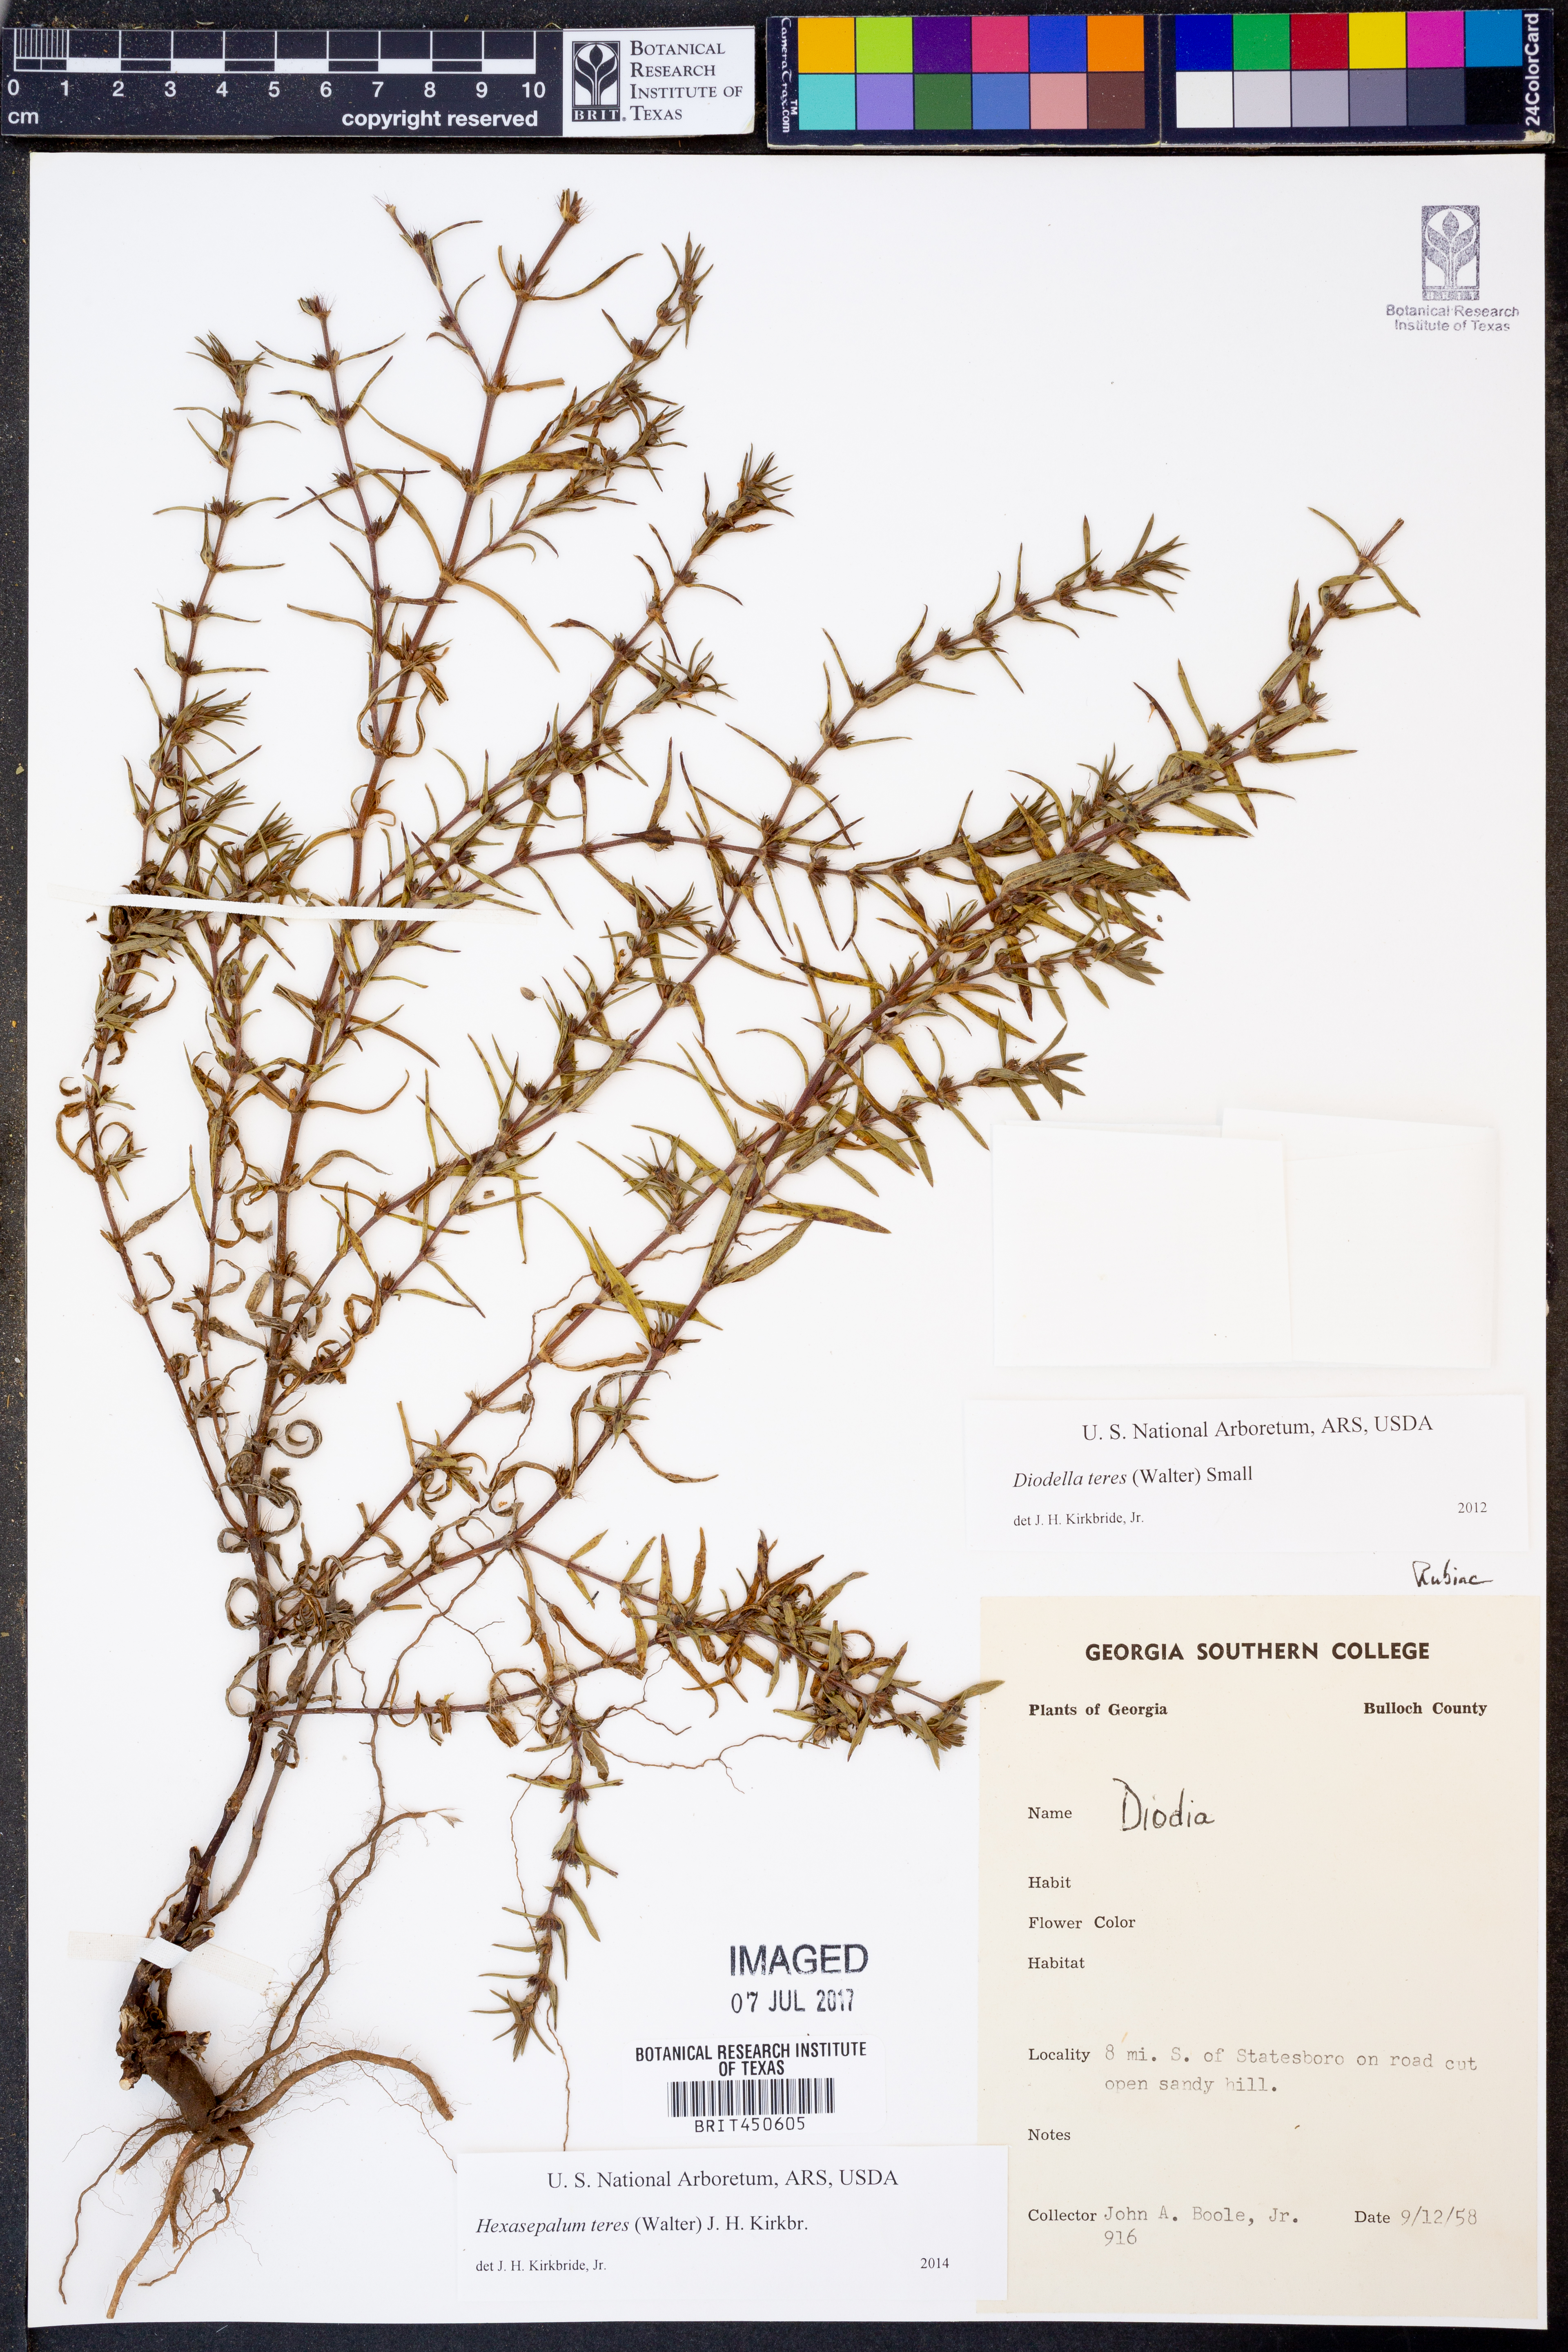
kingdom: Plantae
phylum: Tracheophyta
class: Magnoliopsida
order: Gentianales
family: Rubiaceae
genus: Hexasepalum
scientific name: Hexasepalum teres
